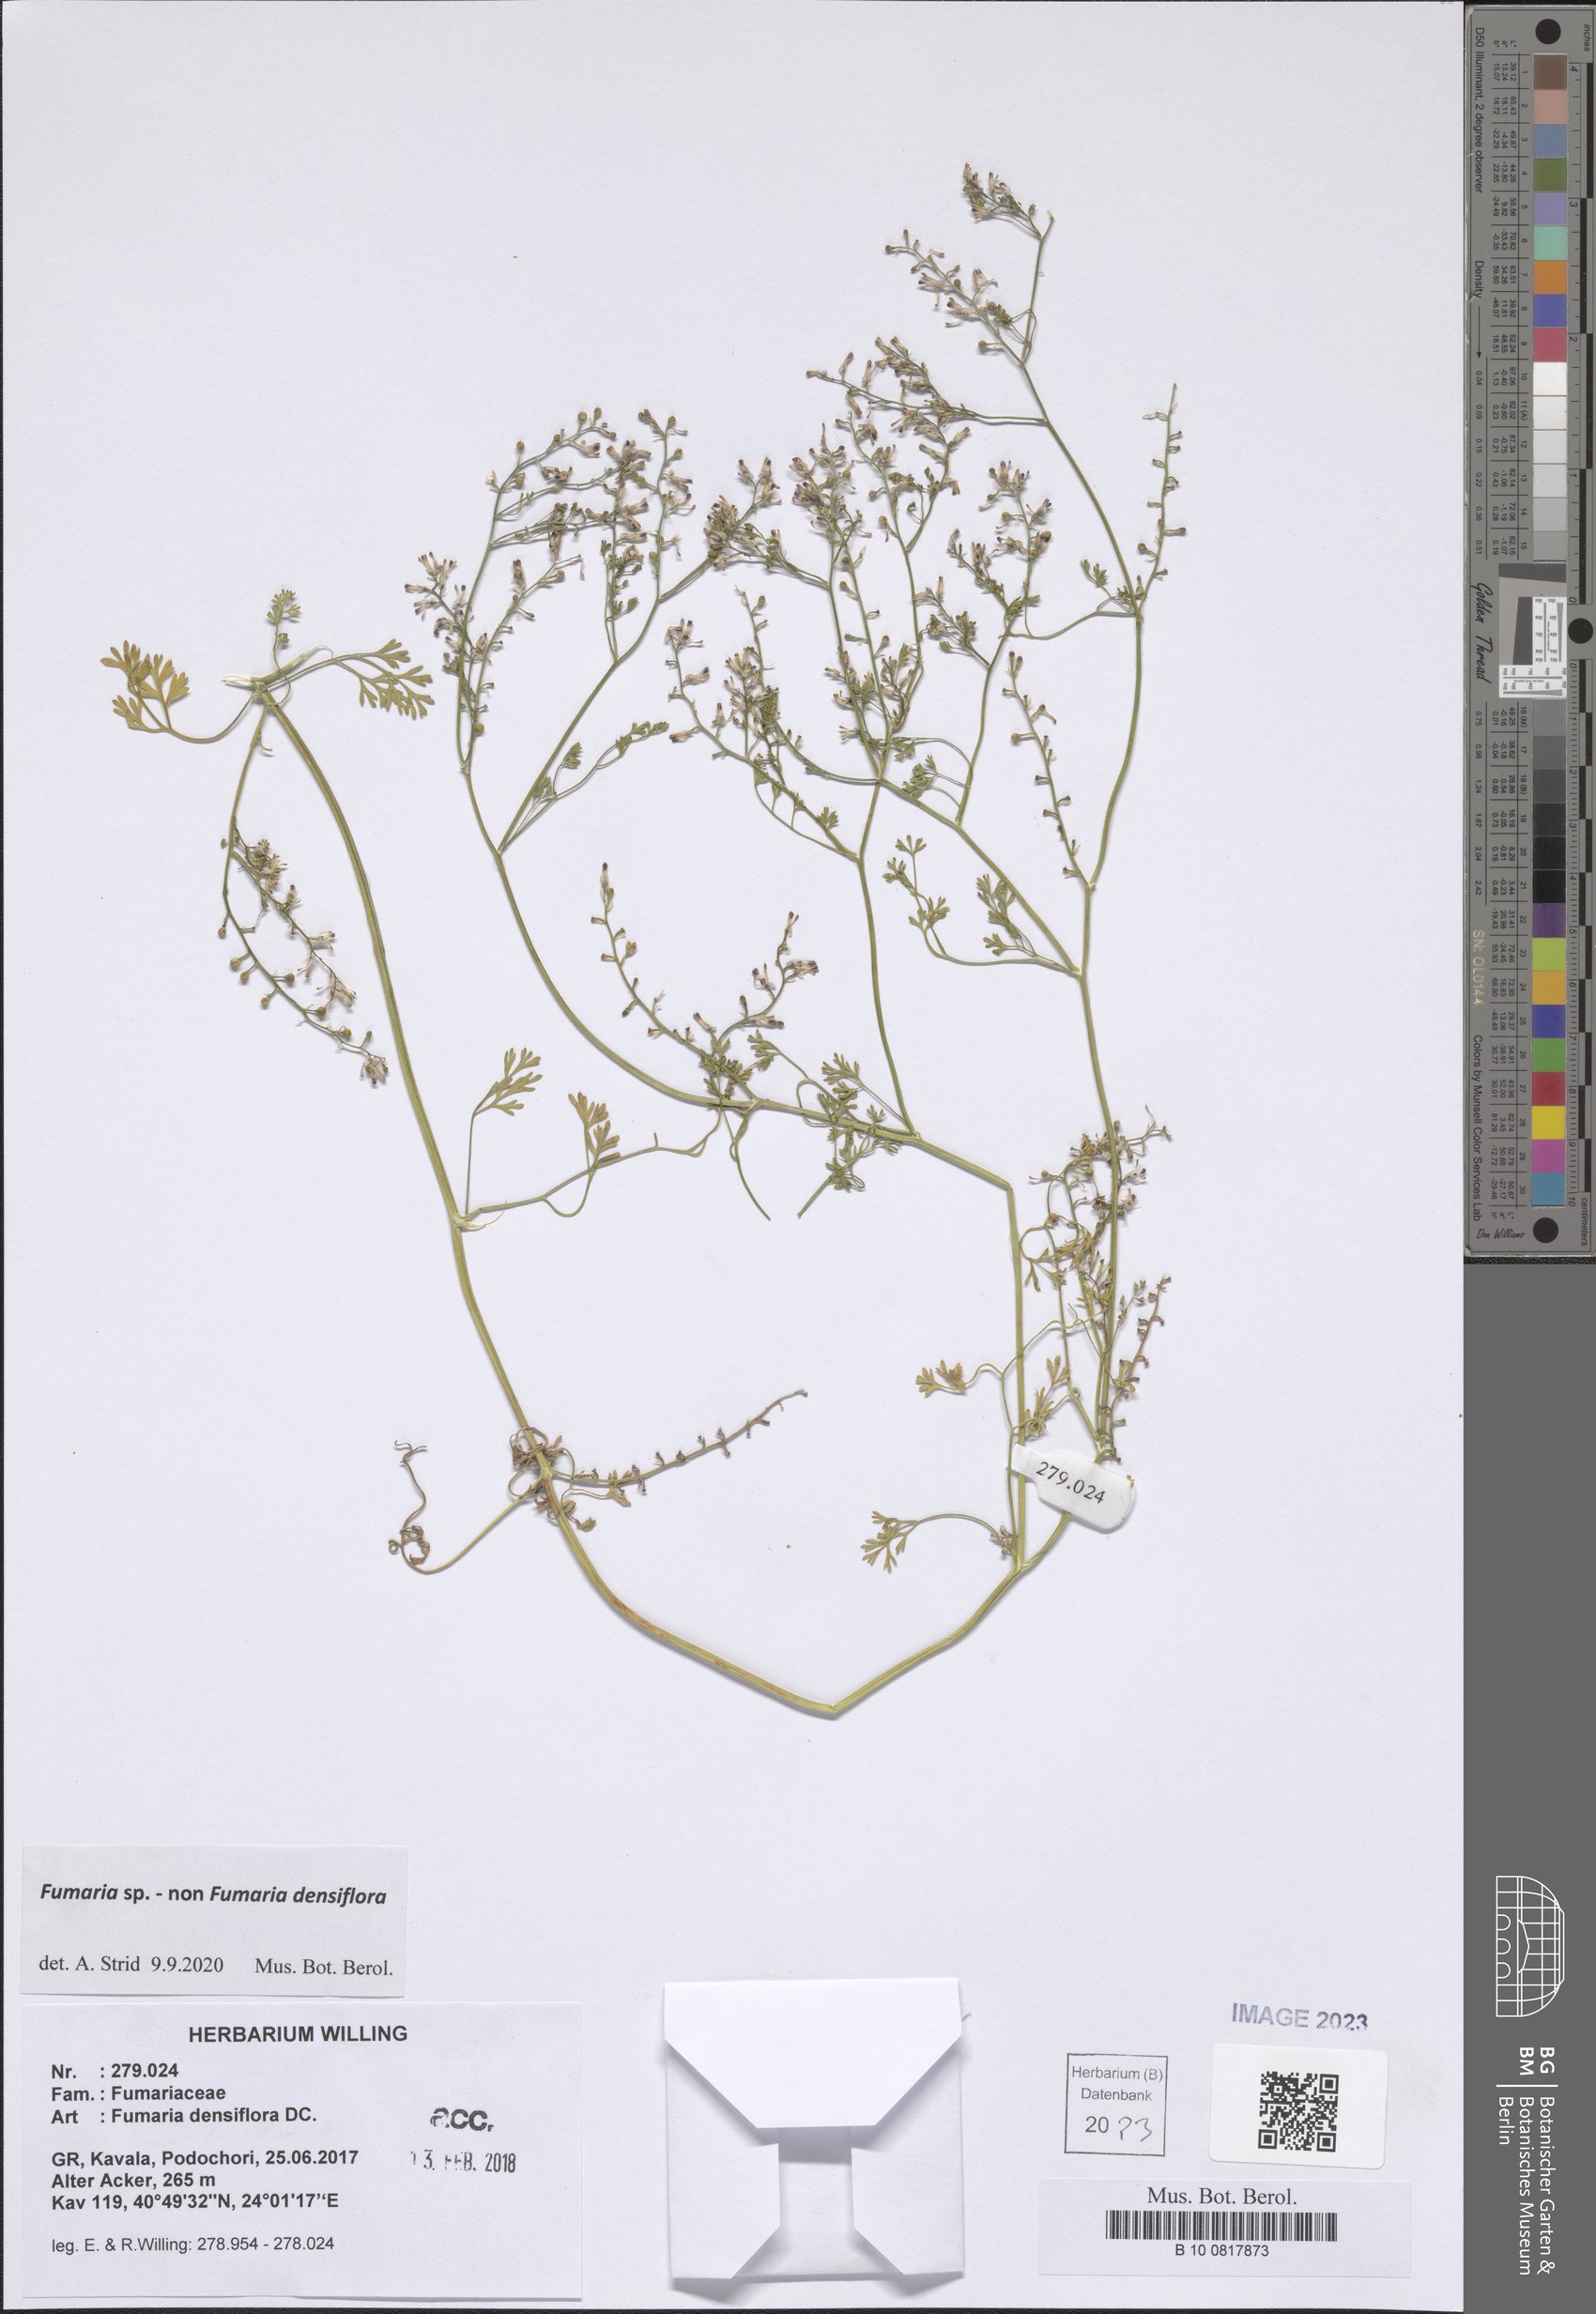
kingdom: Plantae
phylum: Tracheophyta
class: Magnoliopsida
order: Ranunculales
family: Papaveraceae
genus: Fumaria
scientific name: Fumaria
